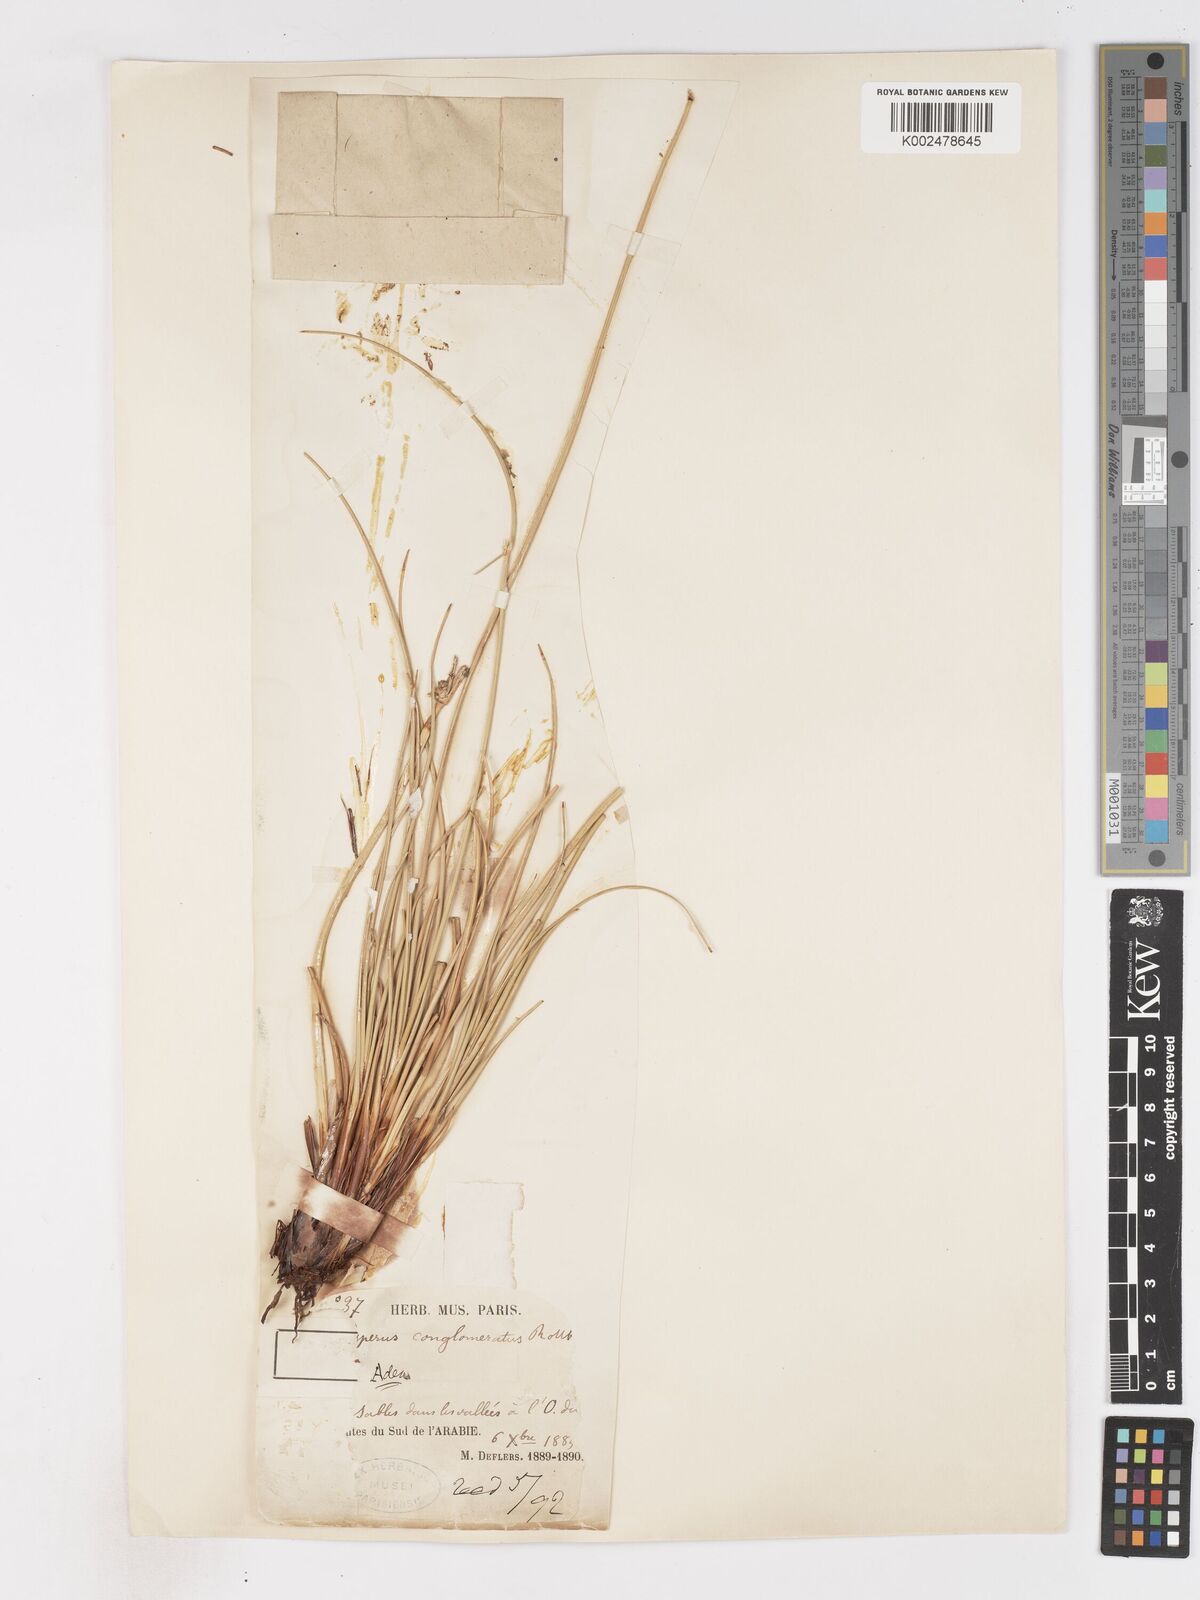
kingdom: Plantae
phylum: Tracheophyta
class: Liliopsida
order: Poales
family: Cyperaceae
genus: Cyperus
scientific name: Cyperus conglomeratus
